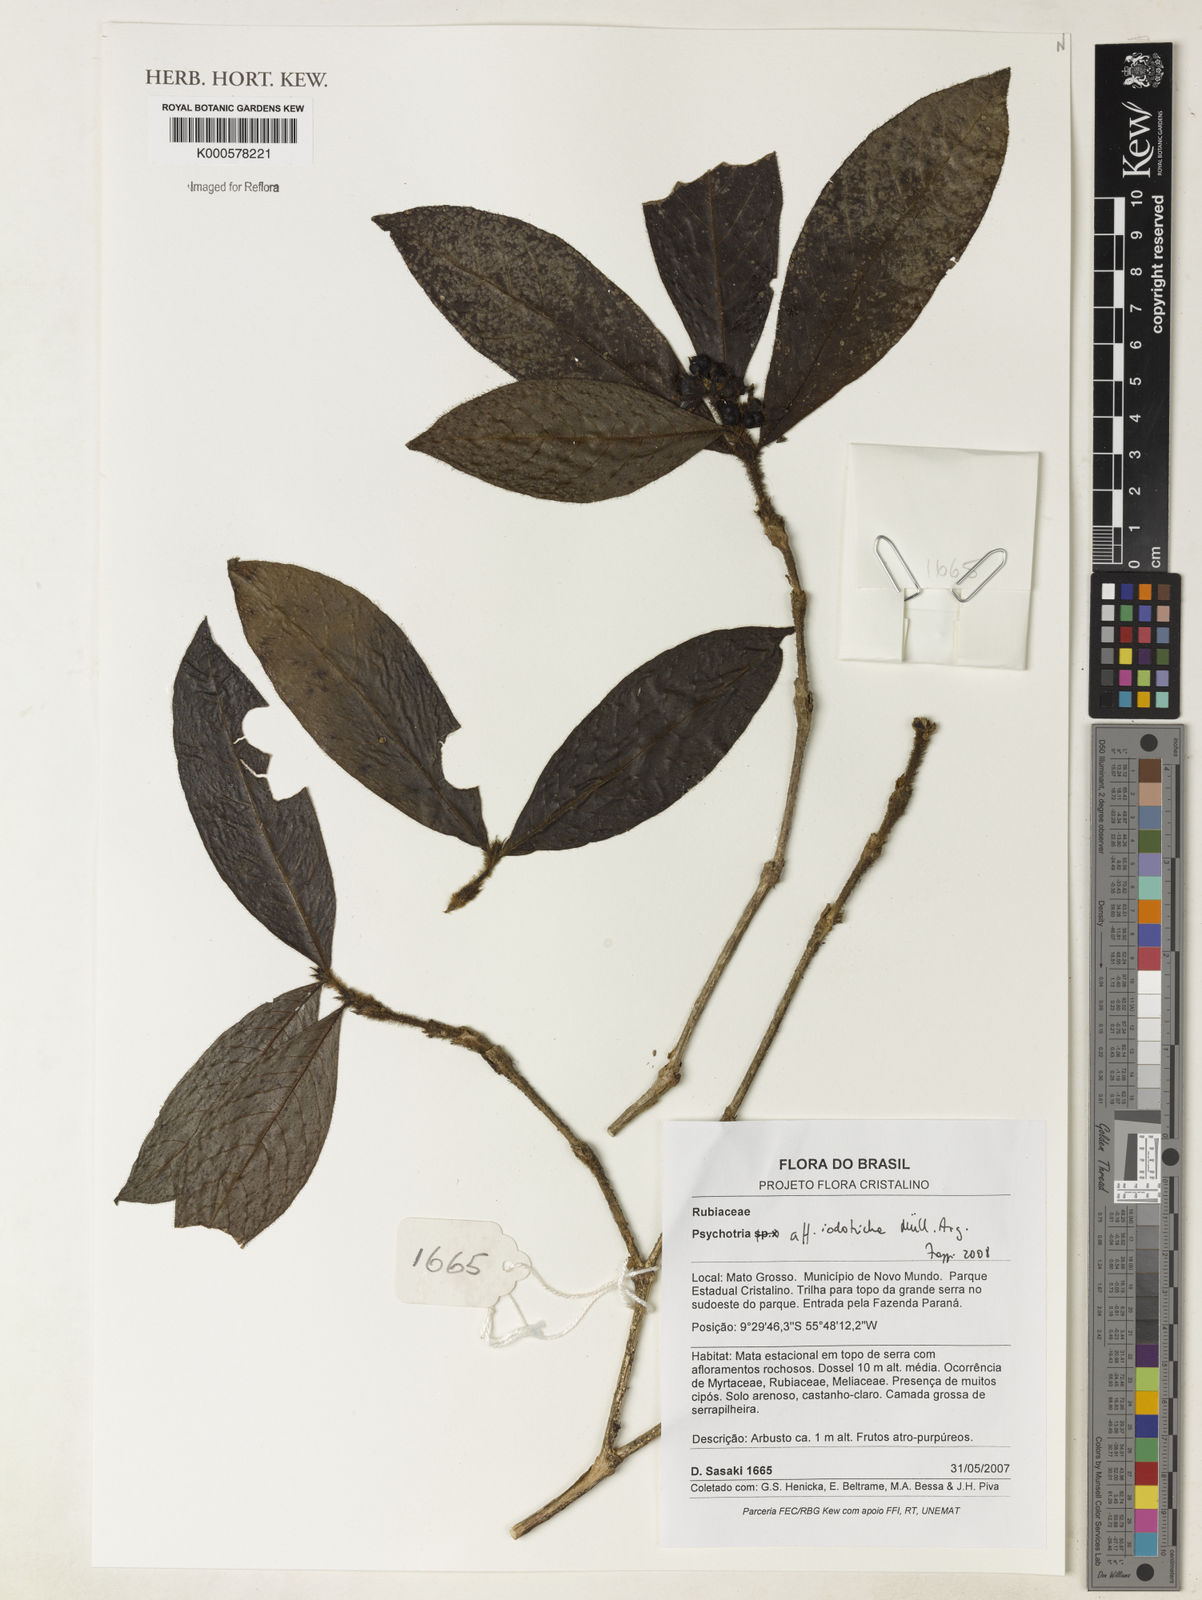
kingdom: Plantae
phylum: Tracheophyta
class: Magnoliopsida
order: Gentianales
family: Rubiaceae
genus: Psychotria
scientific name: Psychotria
